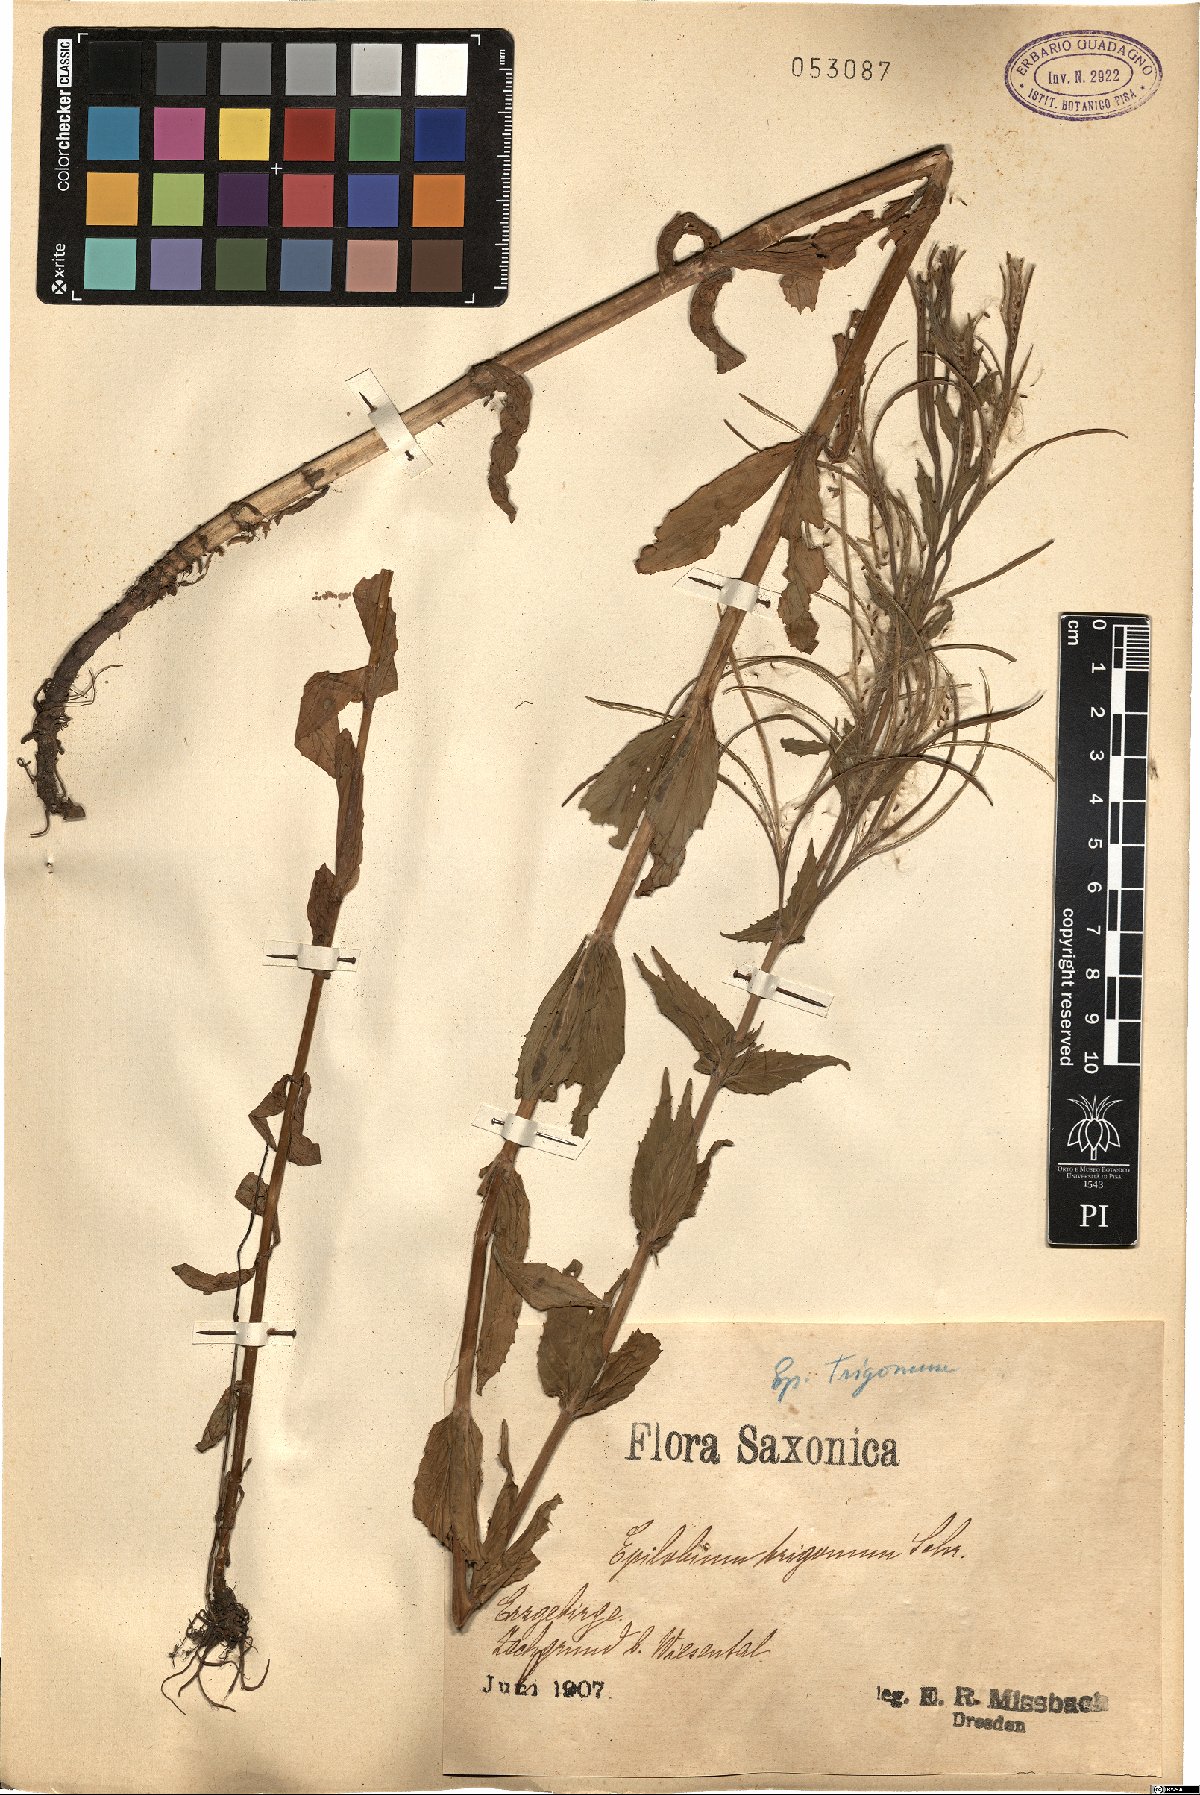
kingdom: Plantae
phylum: Tracheophyta
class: Magnoliopsida
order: Myrtales
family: Onagraceae
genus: Epilobium
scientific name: Epilobium alpestre
